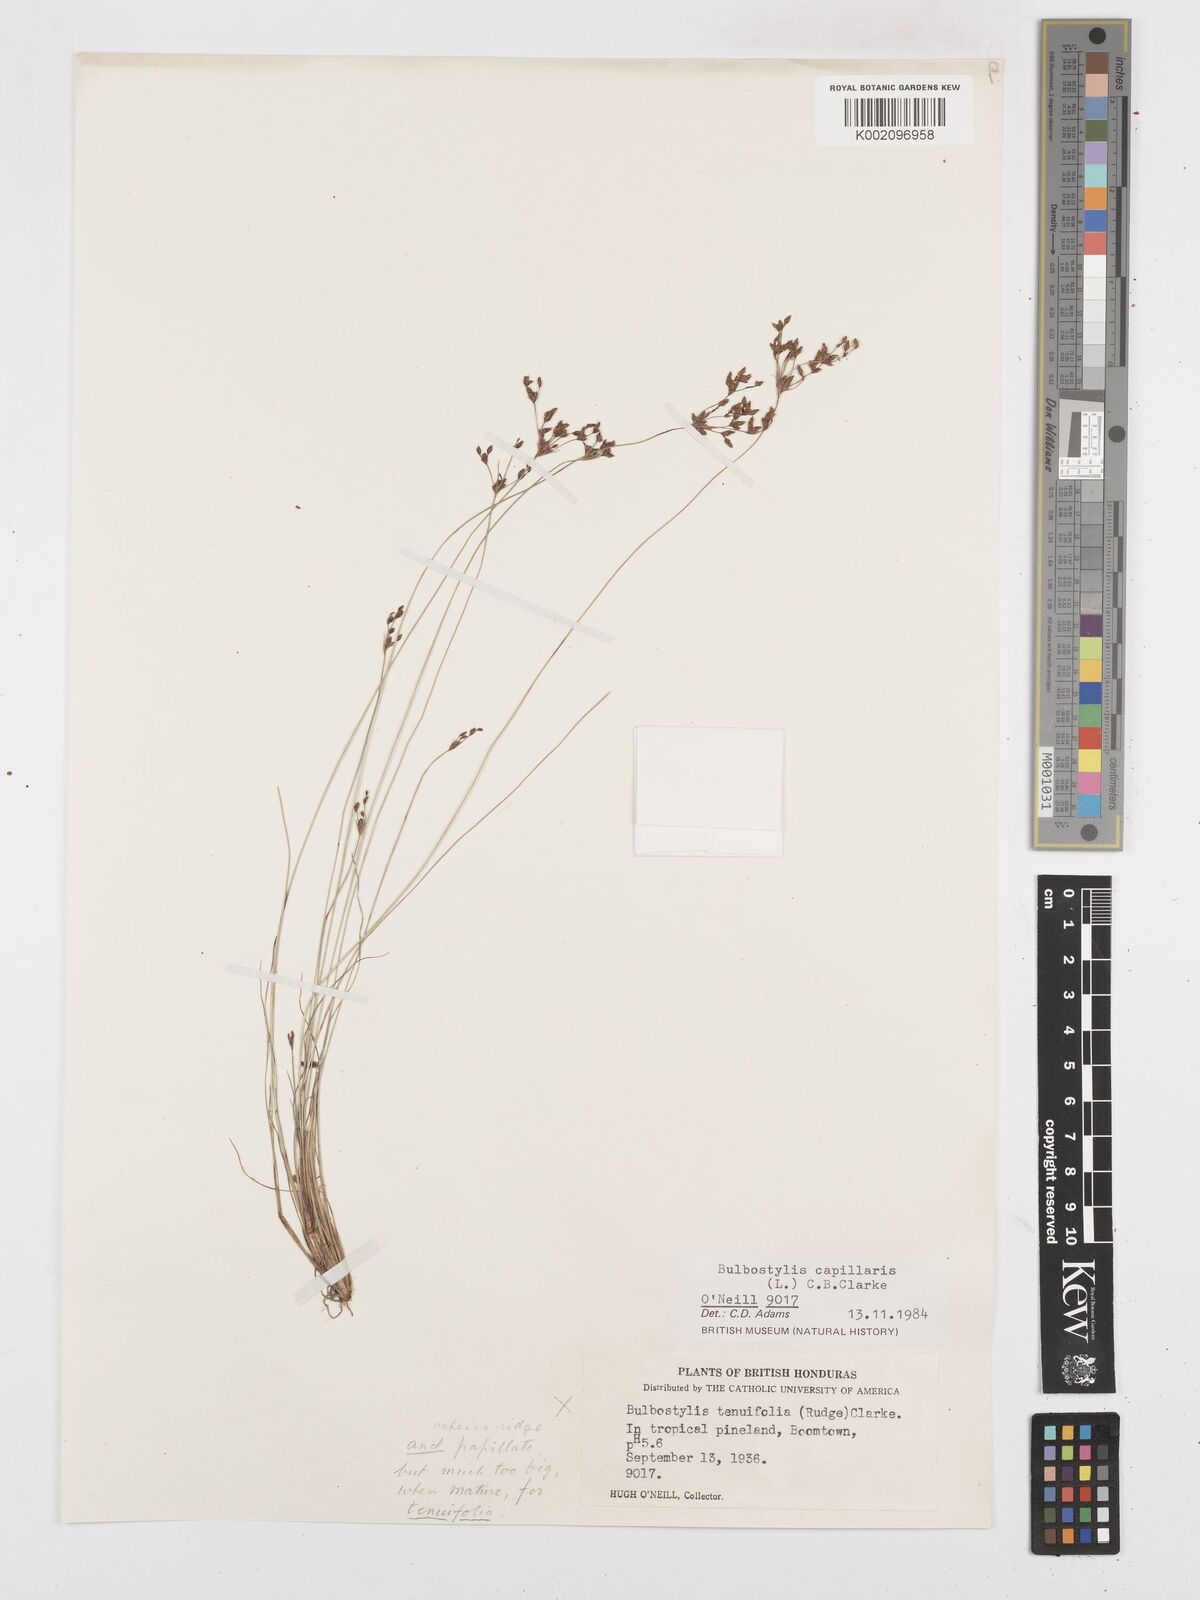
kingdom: Plantae
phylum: Tracheophyta
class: Liliopsida
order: Poales
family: Cyperaceae
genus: Bulbostylis
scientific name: Bulbostylis capillaris
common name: Densetuft hairsedge
